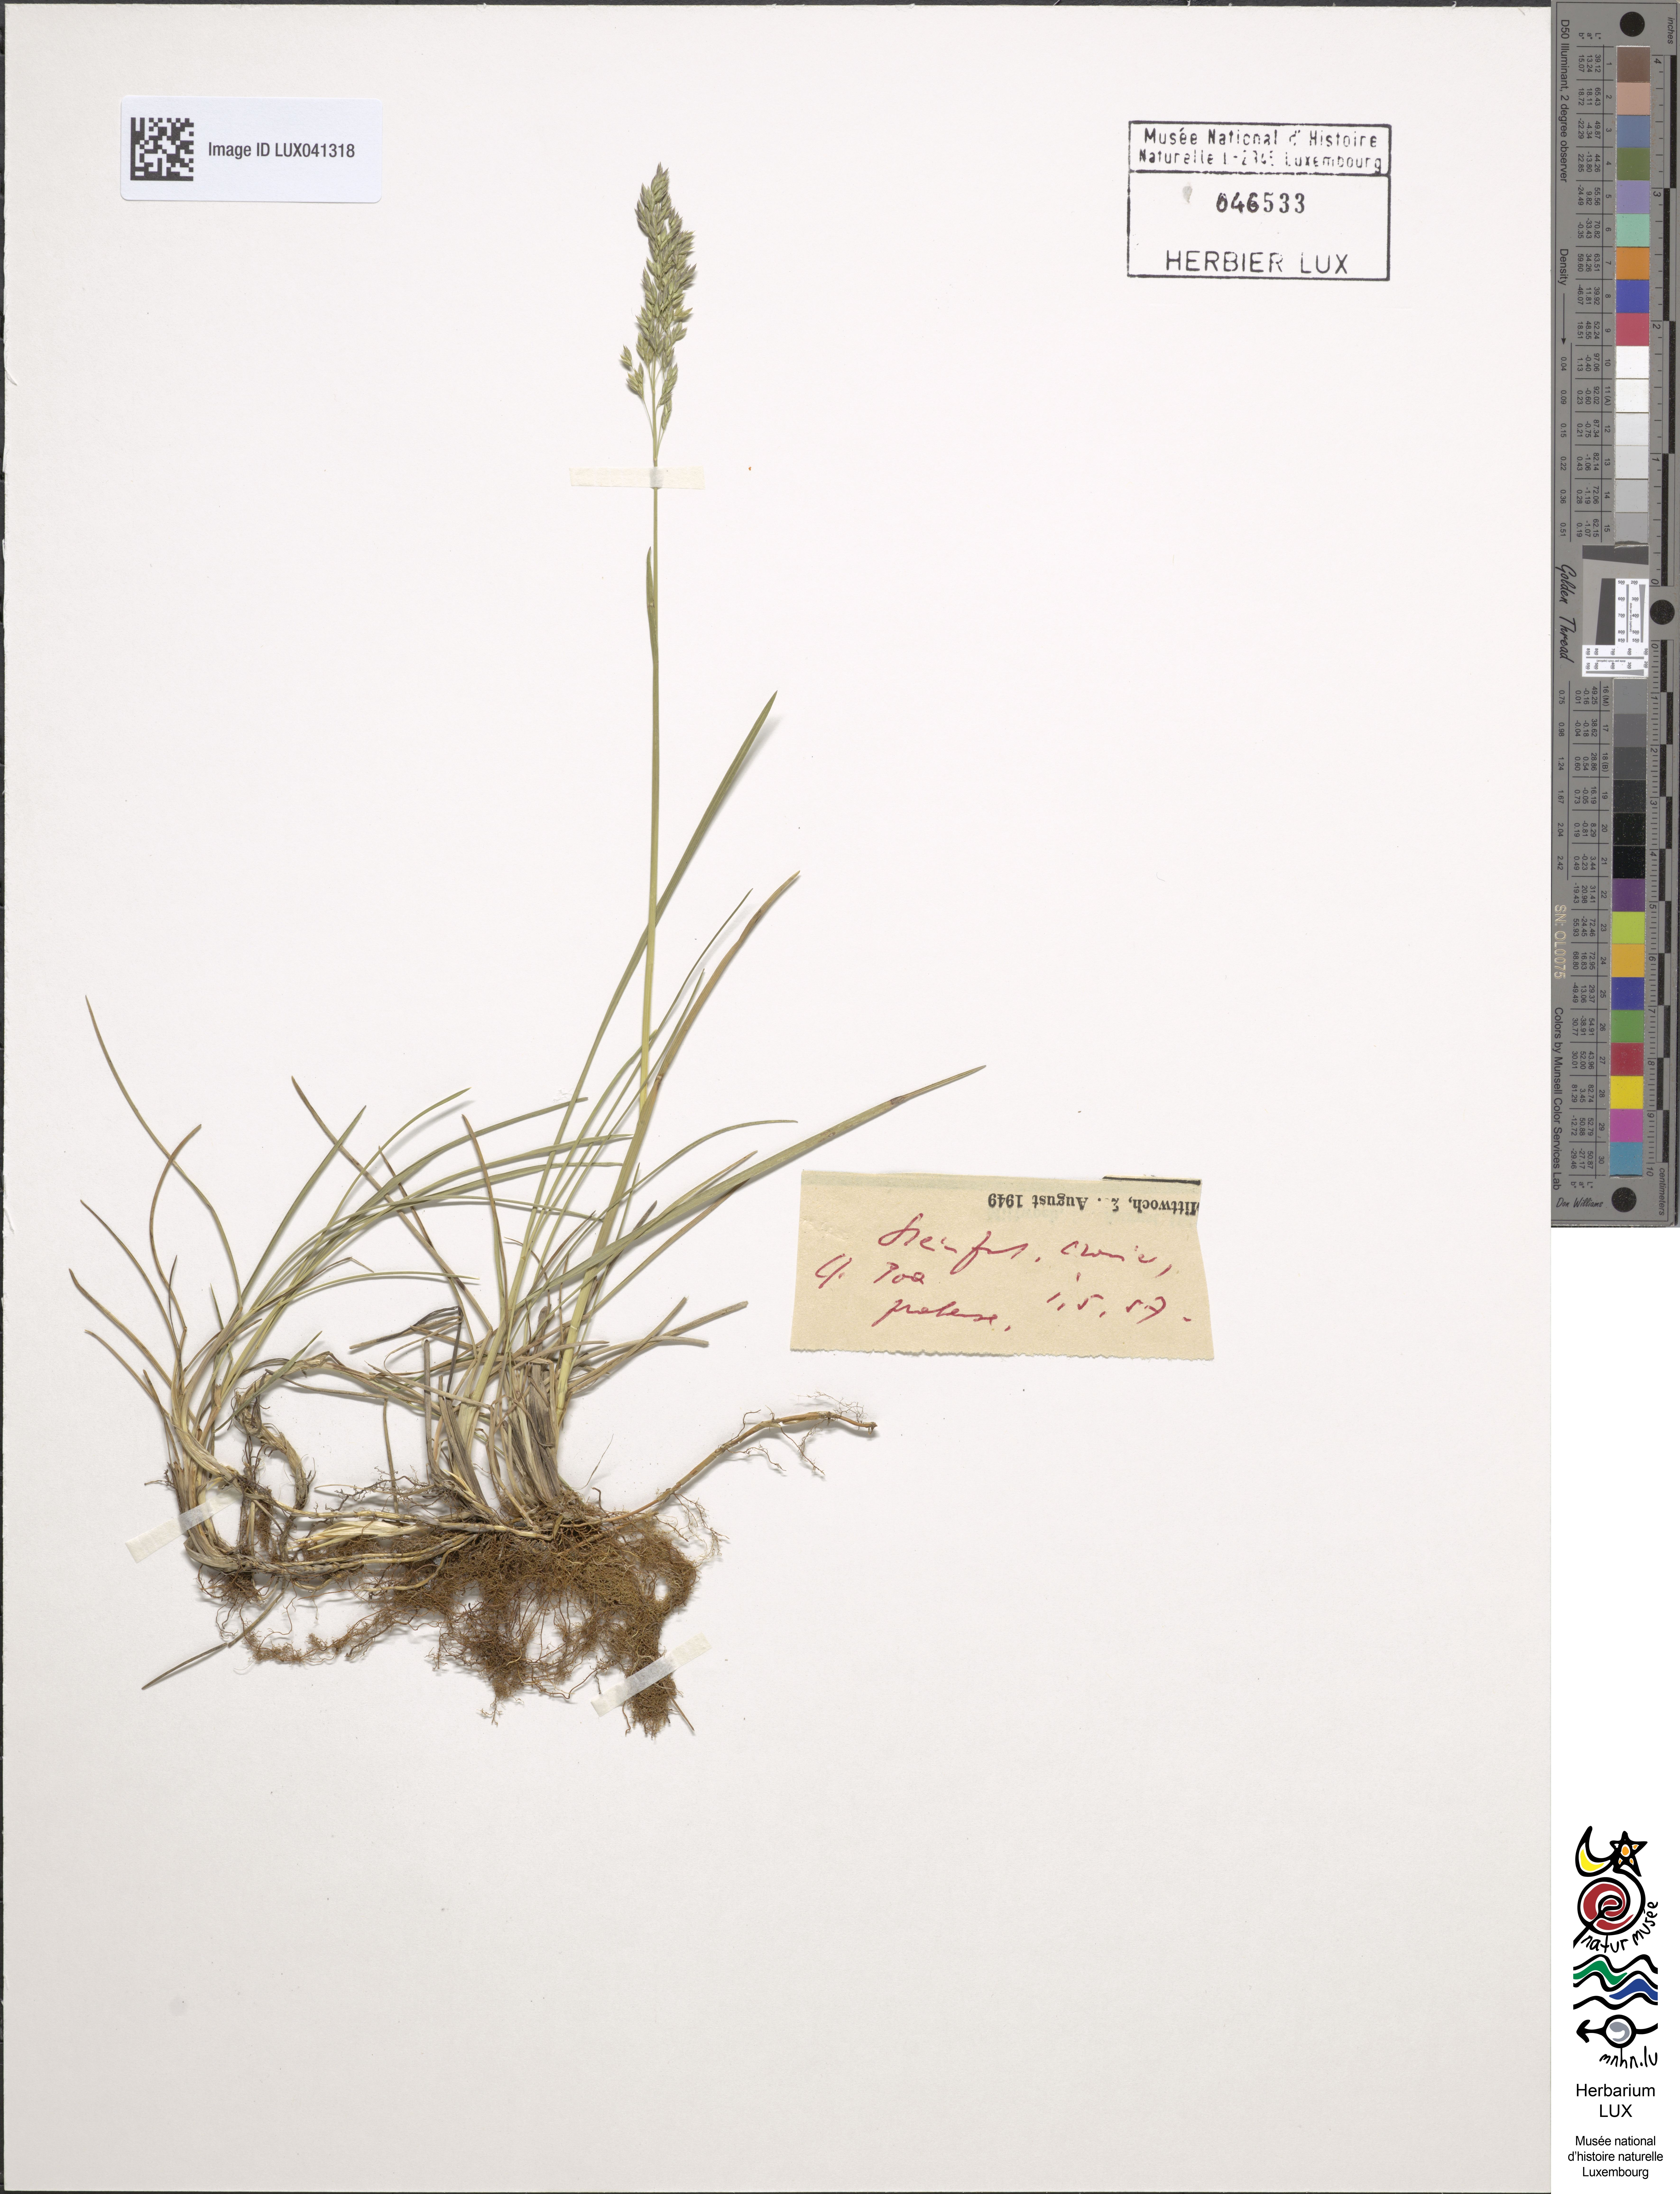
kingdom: Plantae
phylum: Tracheophyta
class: Liliopsida
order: Poales
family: Poaceae
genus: Poa
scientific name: Poa pratensis
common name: Kentucky bluegrass
